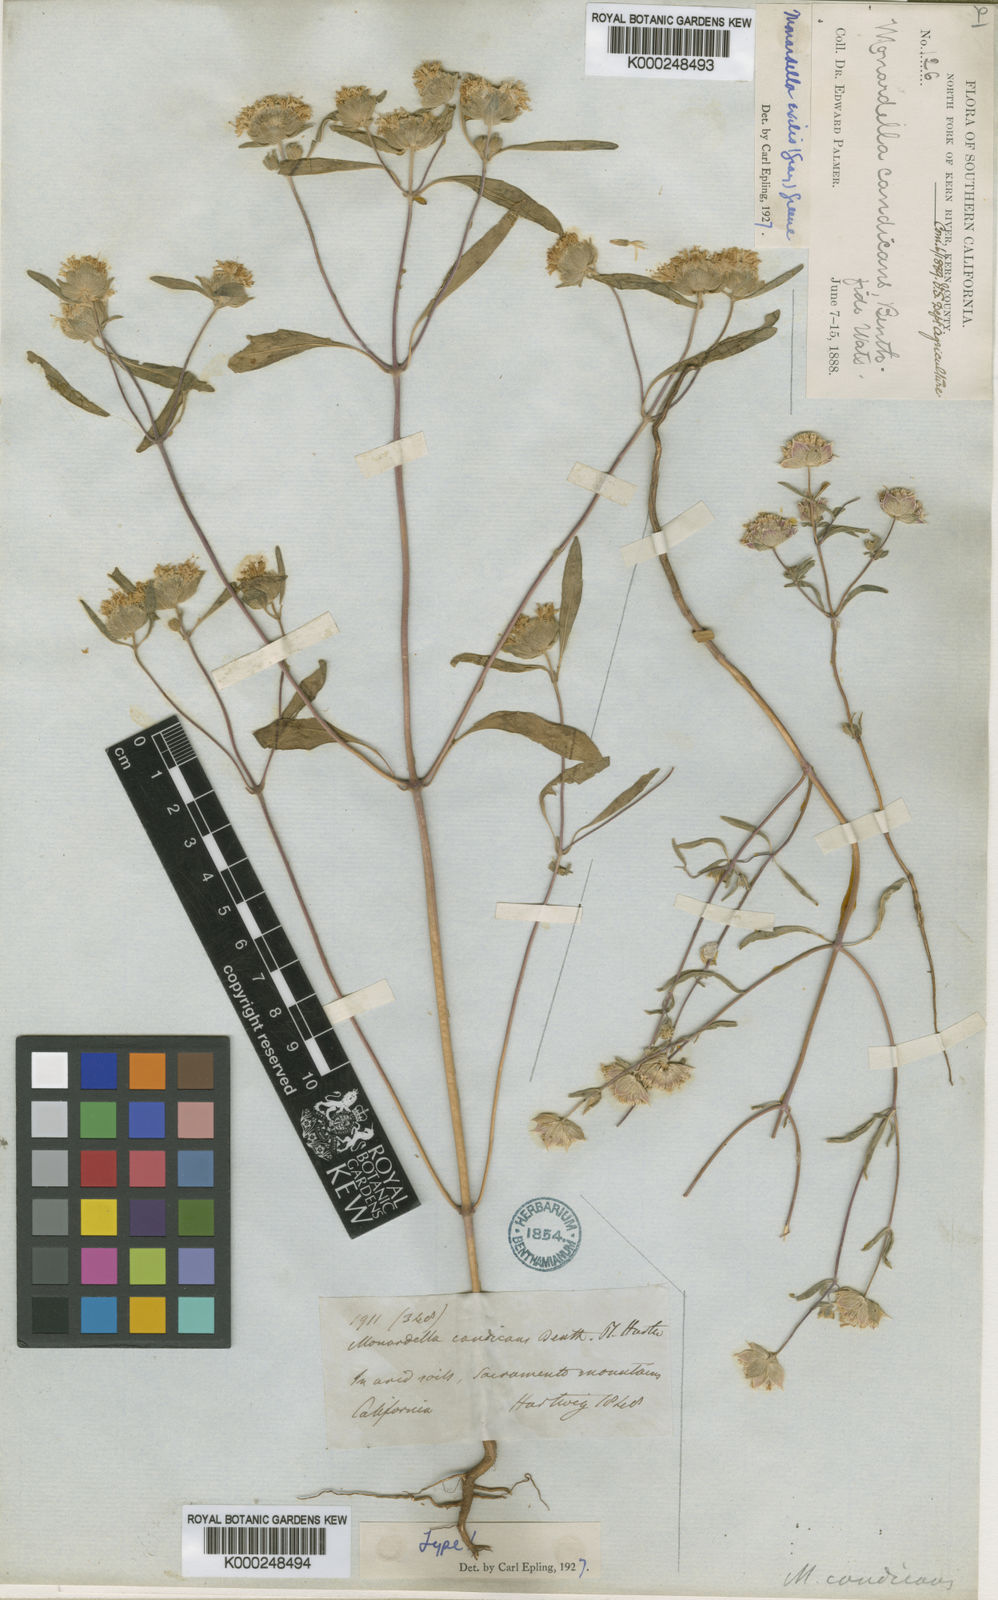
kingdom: Plantae
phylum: Tracheophyta
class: Magnoliopsida
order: Lamiales
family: Lamiaceae
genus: Monardella
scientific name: Monardella candicans
